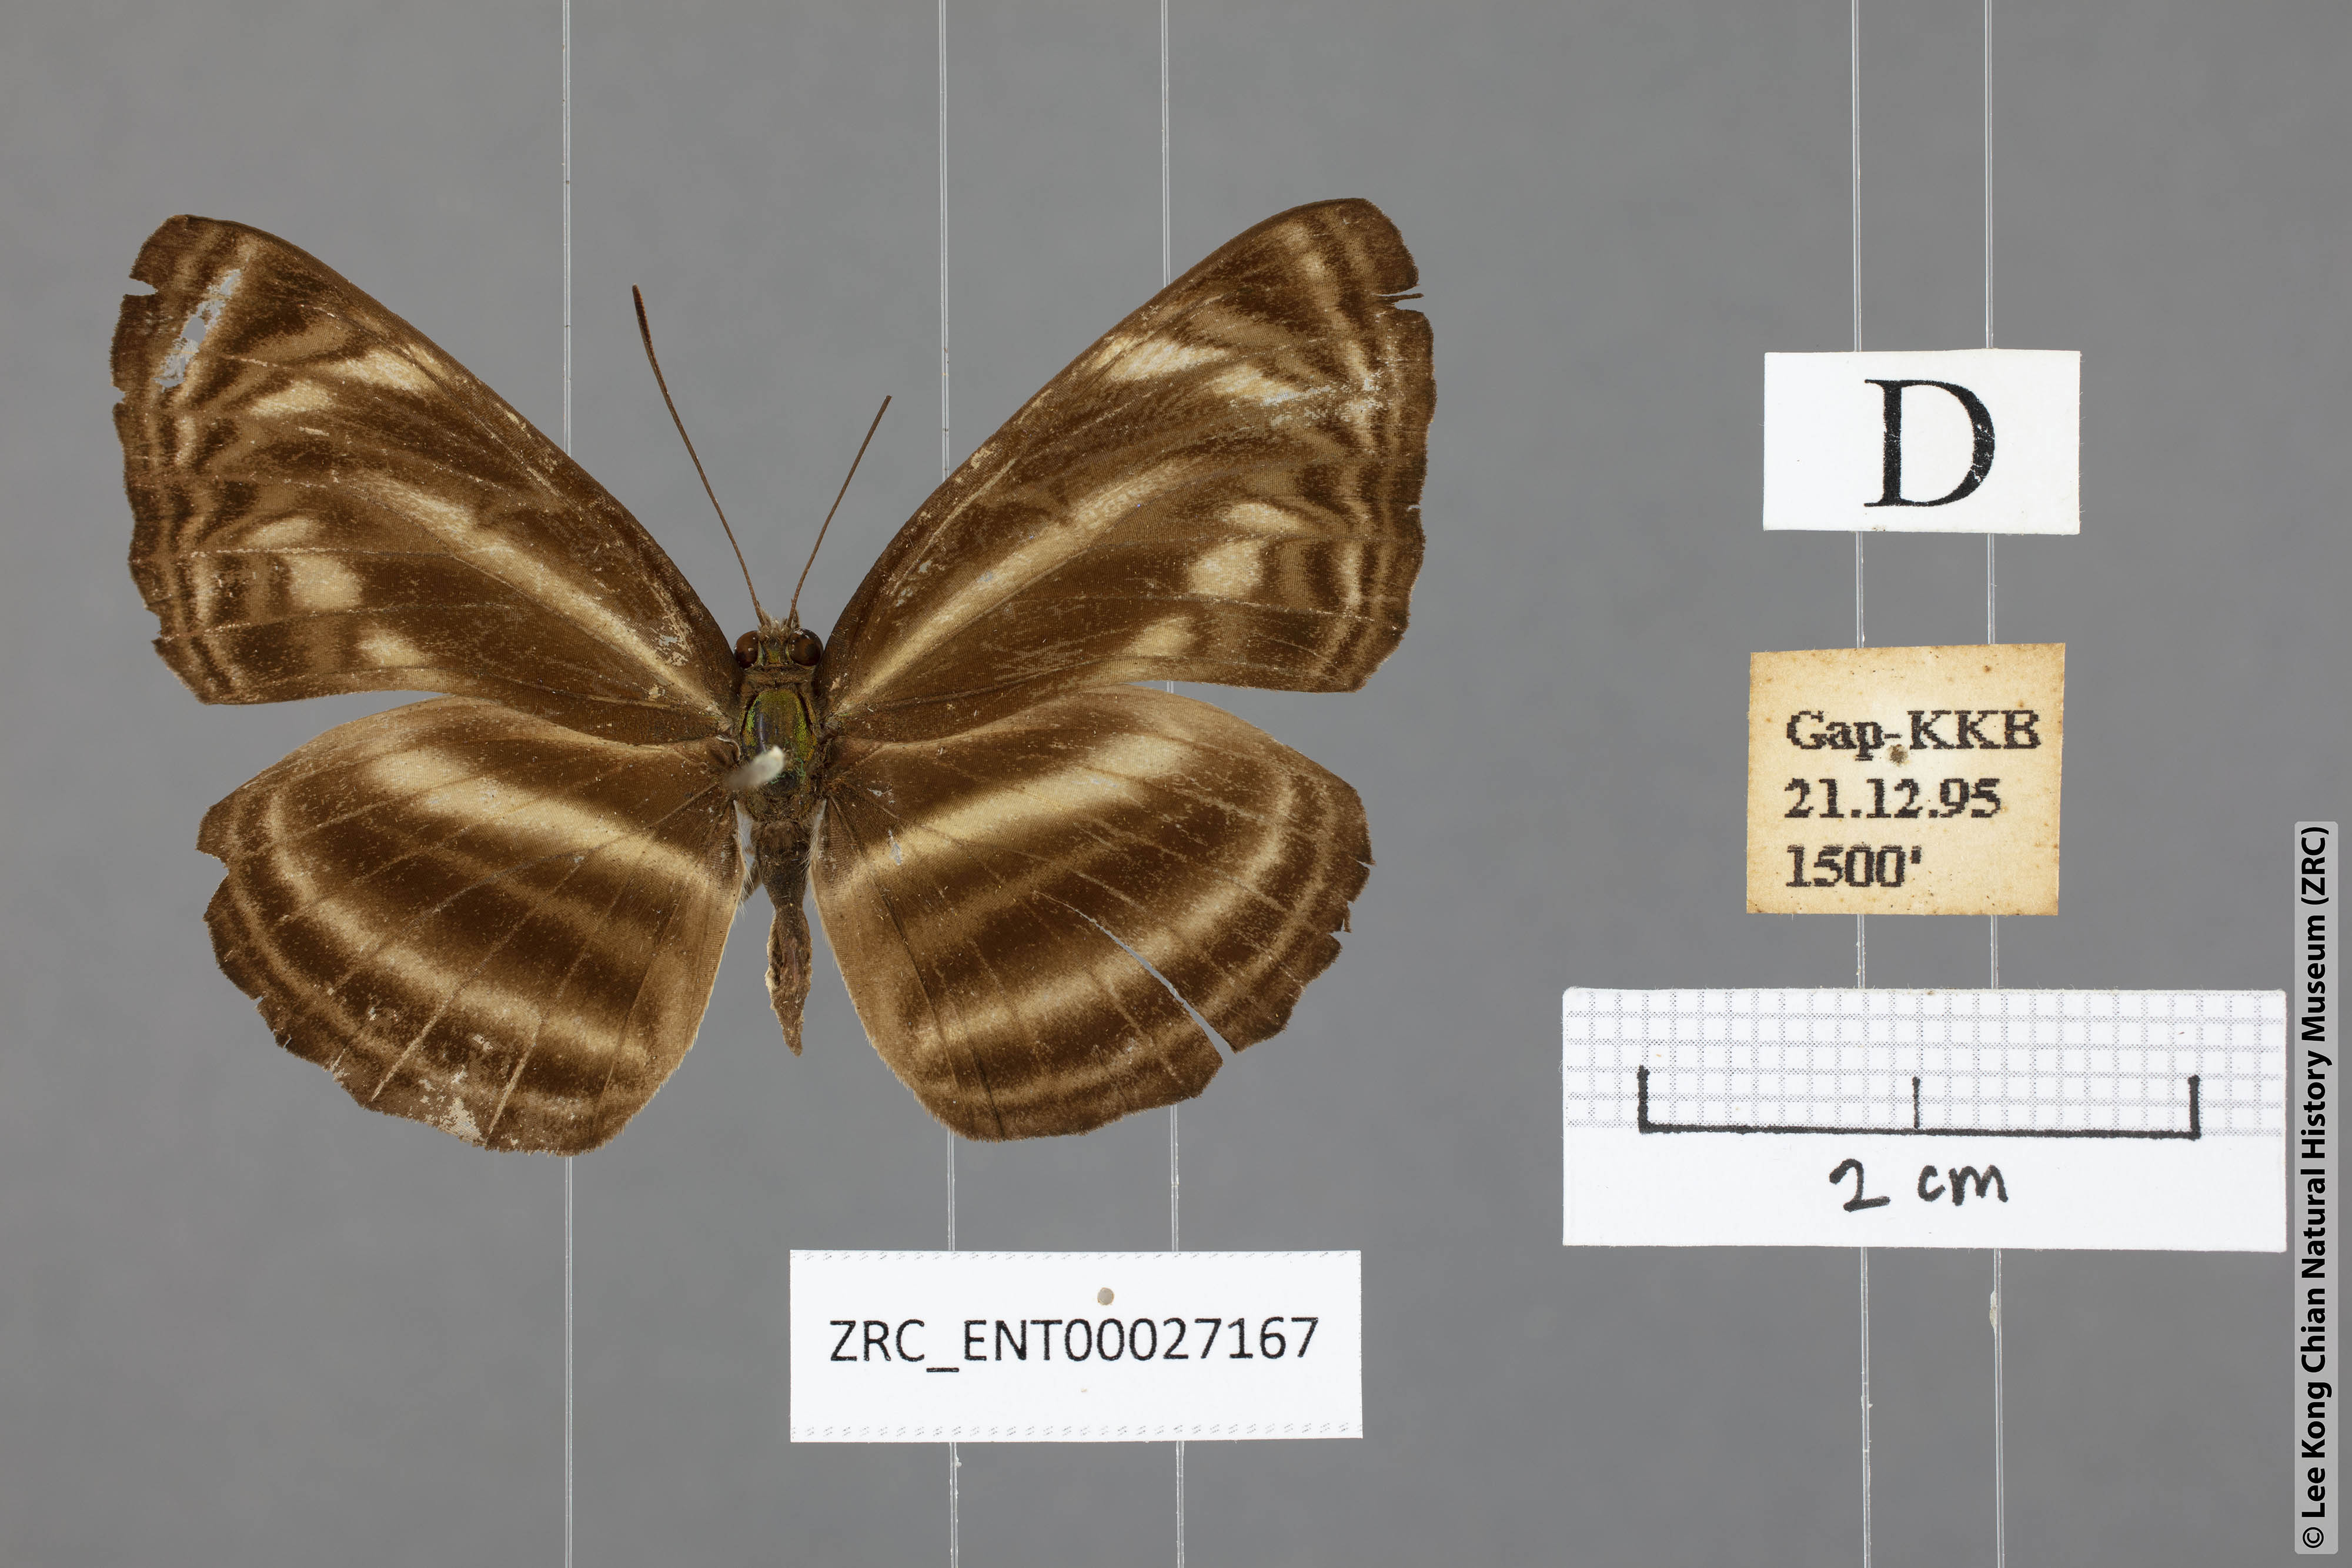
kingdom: Animalia
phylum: Arthropoda
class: Insecta
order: Lepidoptera
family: Nymphalidae
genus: Neptis
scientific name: Neptis omeroda
